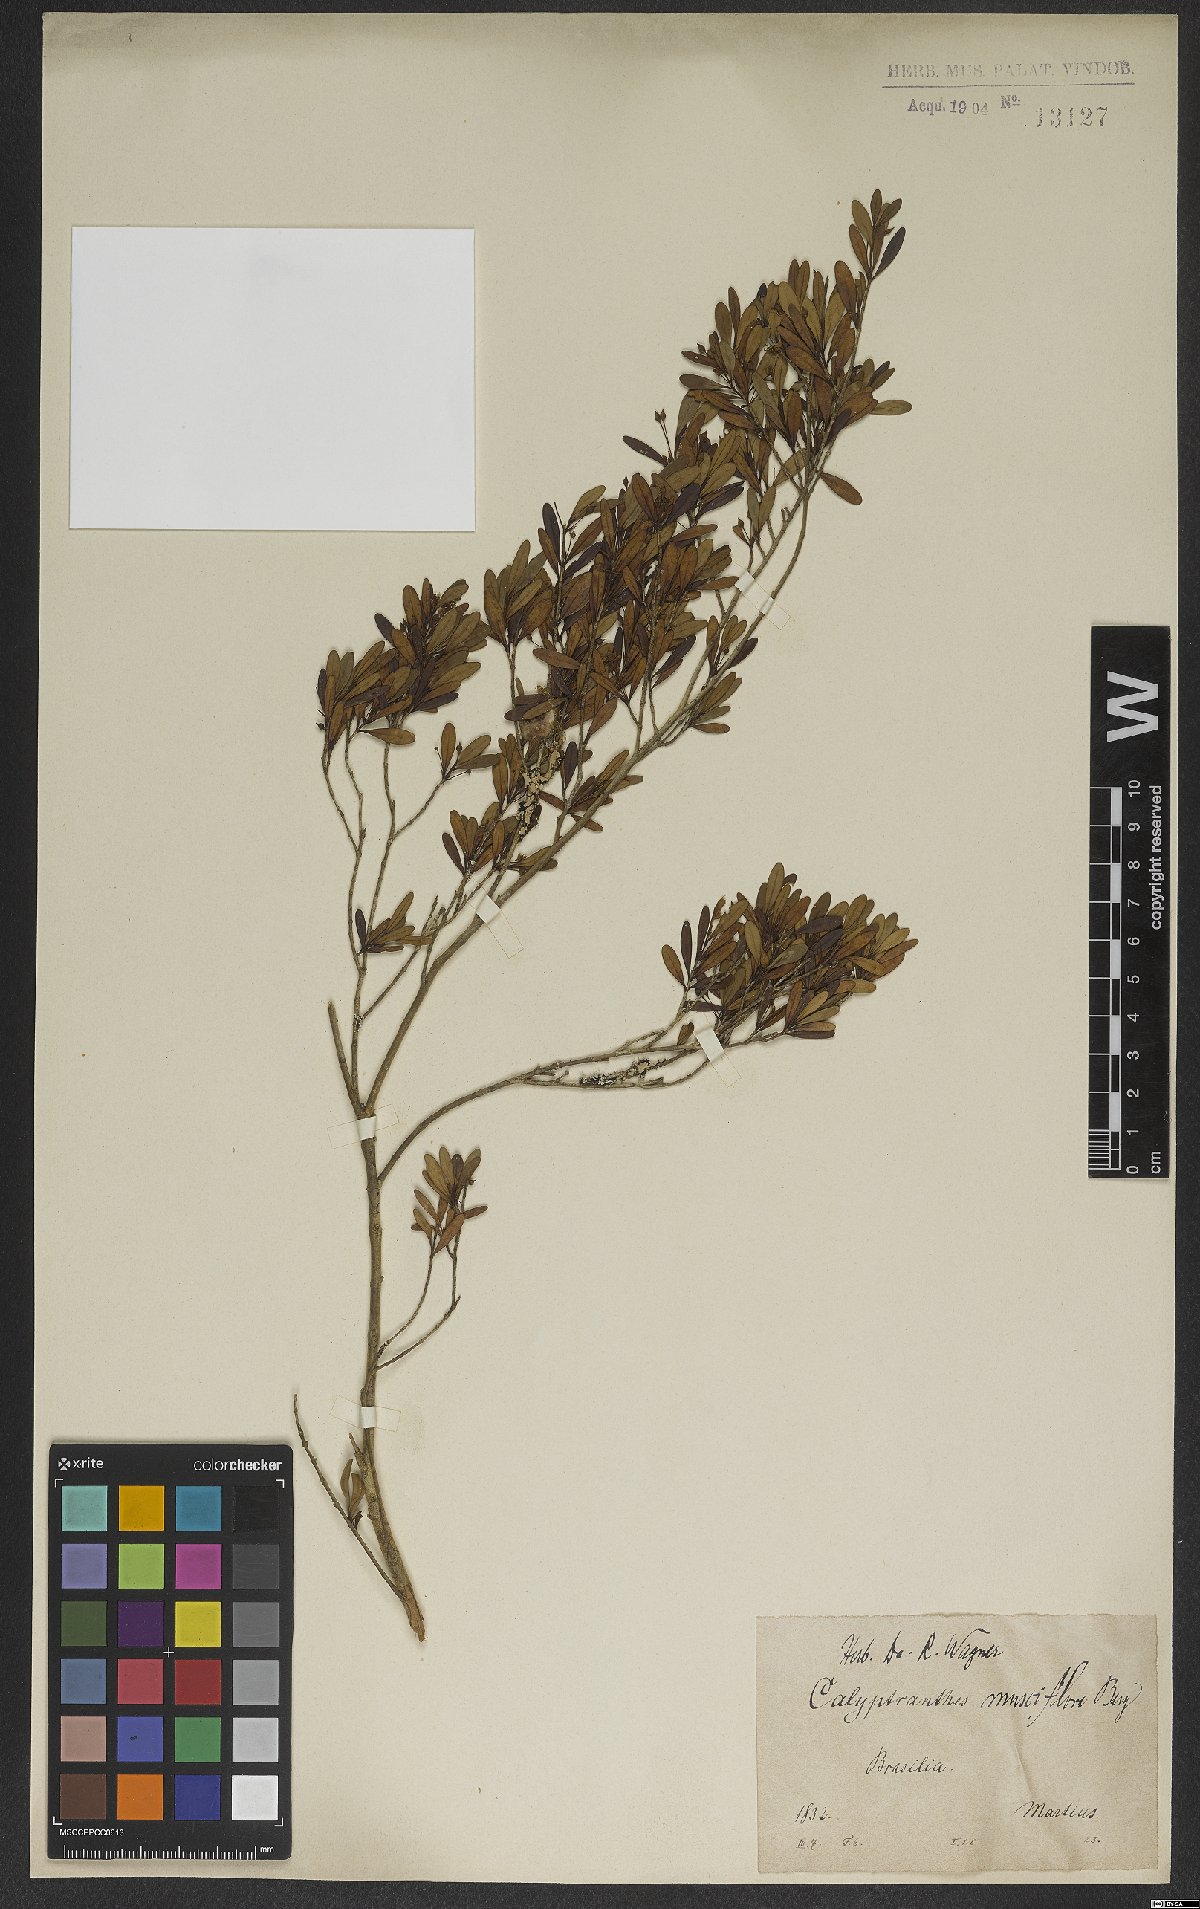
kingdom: Plantae
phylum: Tracheophyta
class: Magnoliopsida
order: Myrtales
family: Myrtaceae
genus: Myrcia
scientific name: Myrcia grammica
